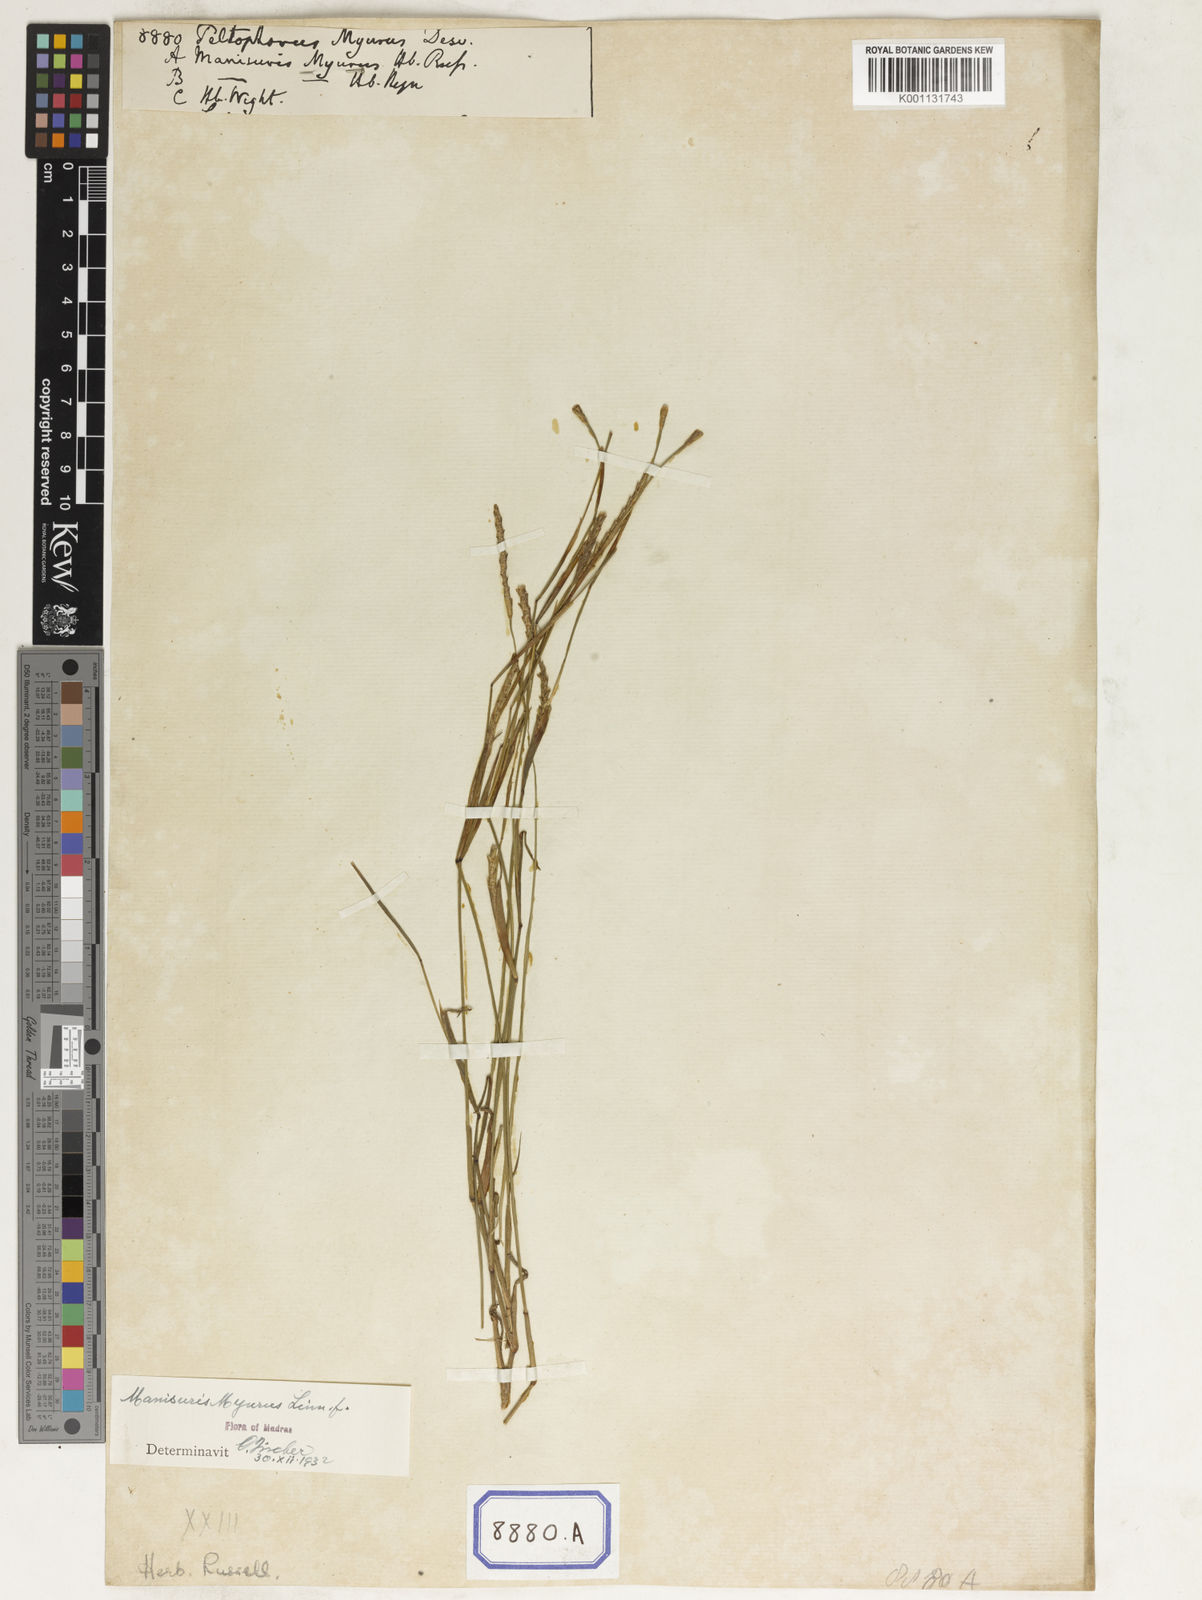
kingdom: Plantae
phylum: Tracheophyta
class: Liliopsida
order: Poales
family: Poaceae
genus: Manisuris
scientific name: Manisuris myurus
